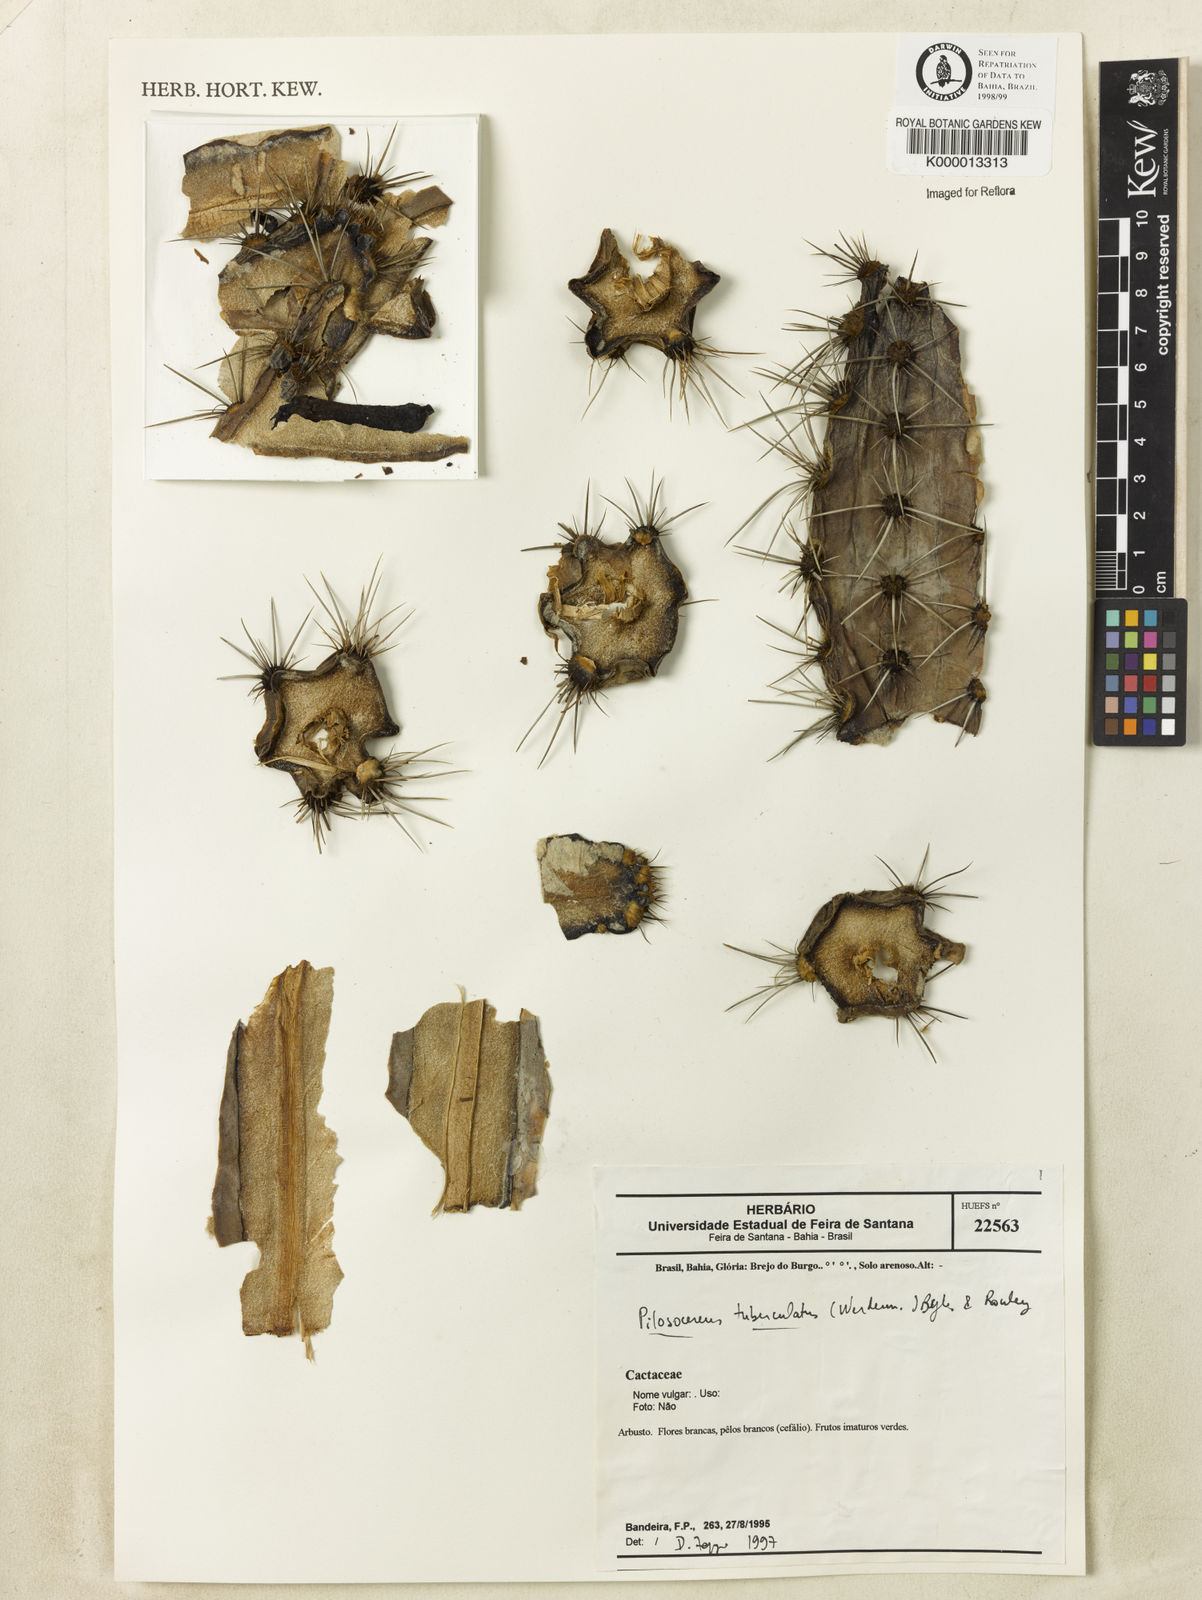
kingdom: Plantae
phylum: Tracheophyta
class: Magnoliopsida
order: Caryophyllales
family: Cactaceae
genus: Xiquexique
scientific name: Xiquexique tuberculatus
